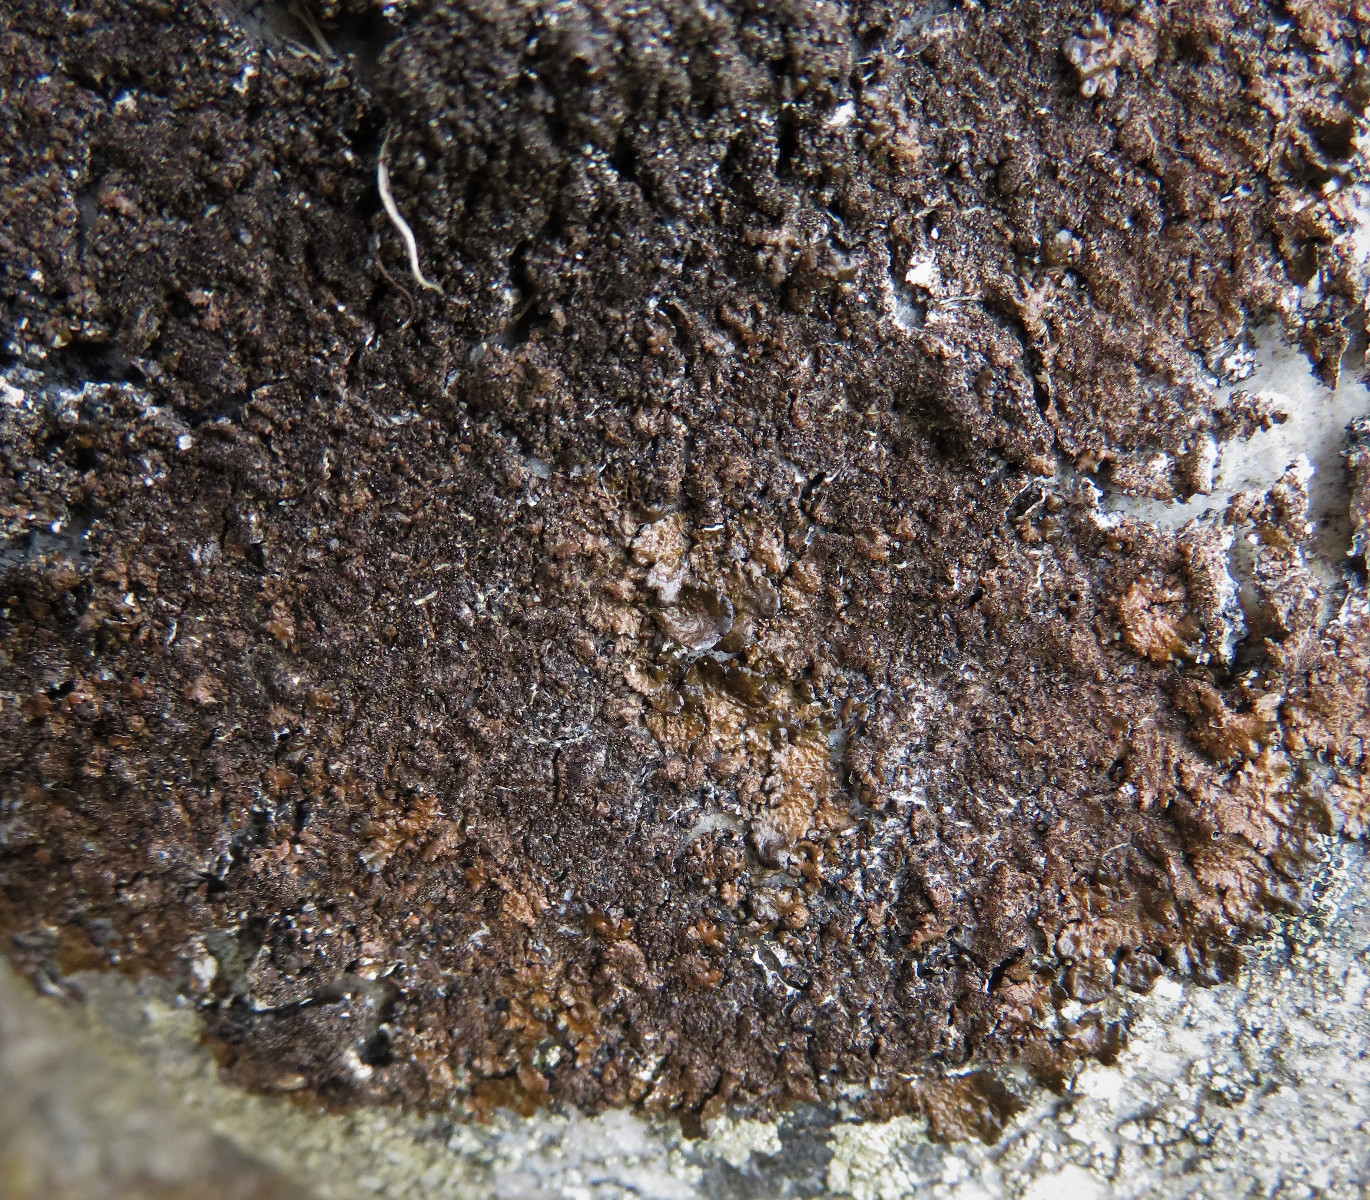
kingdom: Fungi
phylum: Ascomycota
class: Lecanoromycetes
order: Lecanorales
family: Parmeliaceae
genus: Melanelixia
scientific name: Melanelixia fuliginosa
